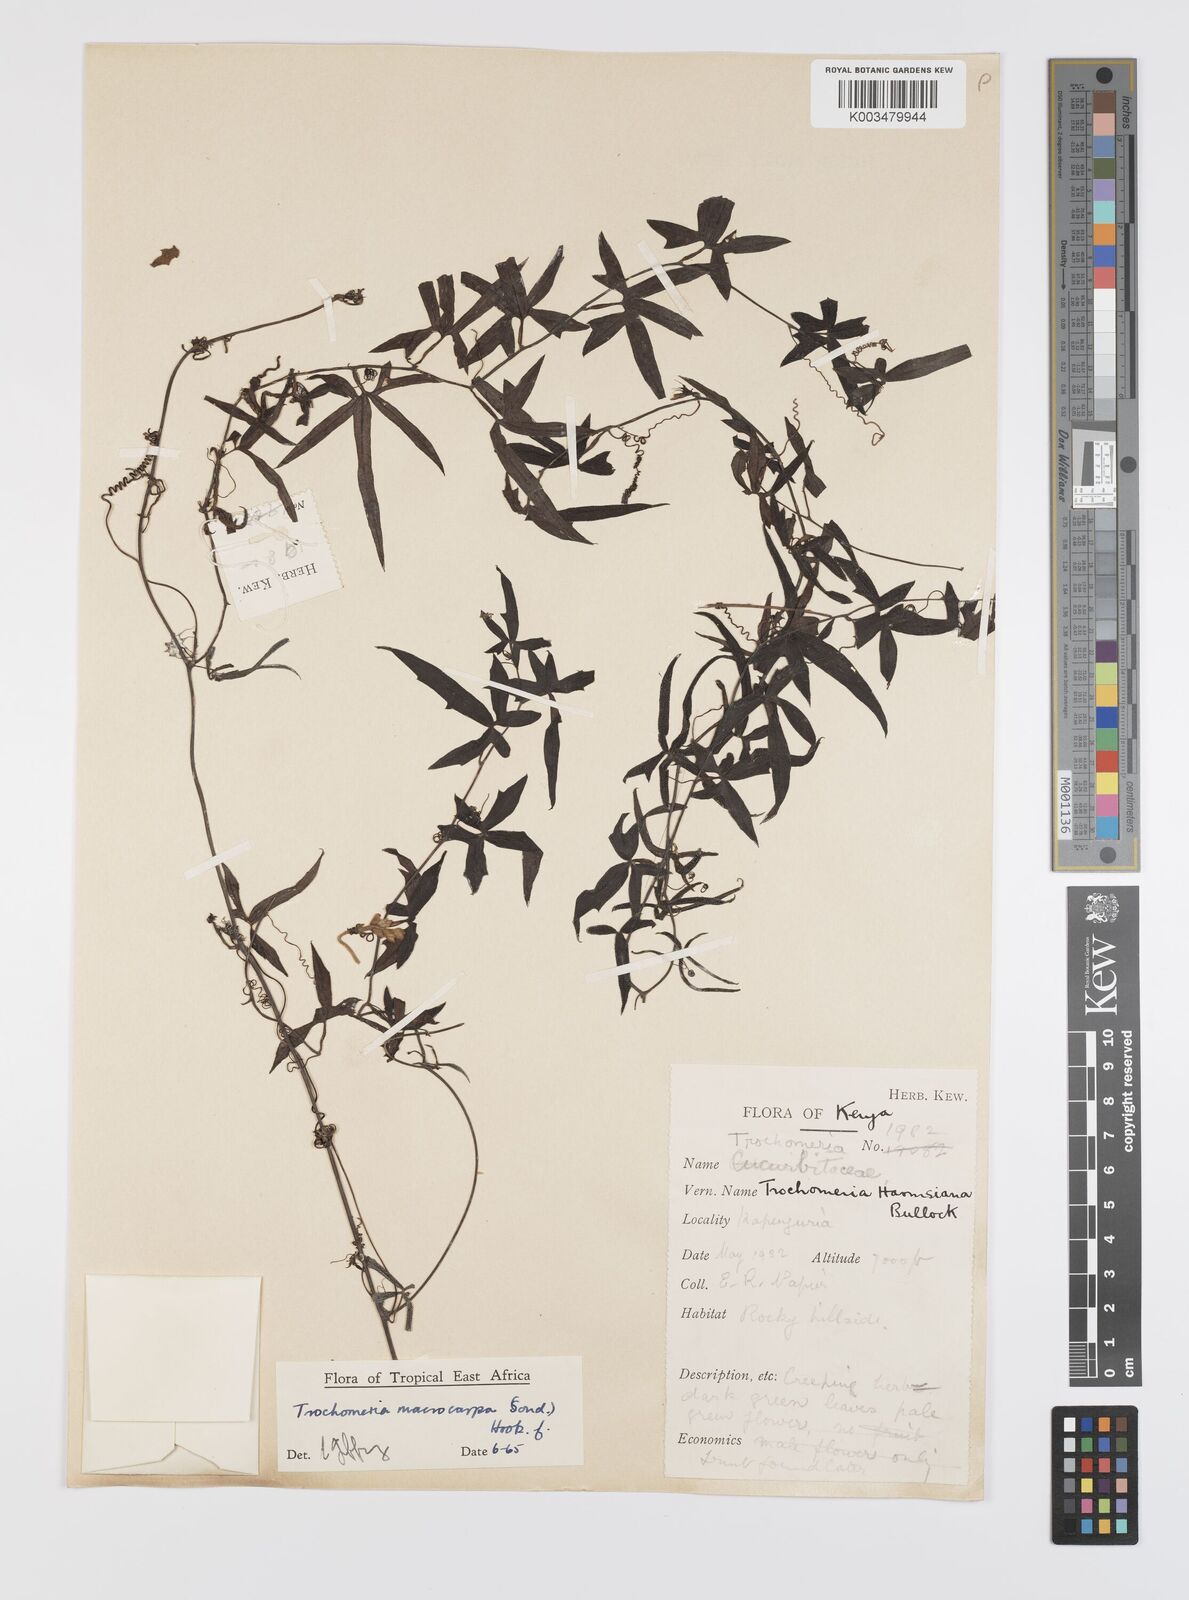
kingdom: Plantae
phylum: Tracheophyta
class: Magnoliopsida
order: Cucurbitales
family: Cucurbitaceae
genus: Trochomeria
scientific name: Trochomeria macrocarpa
